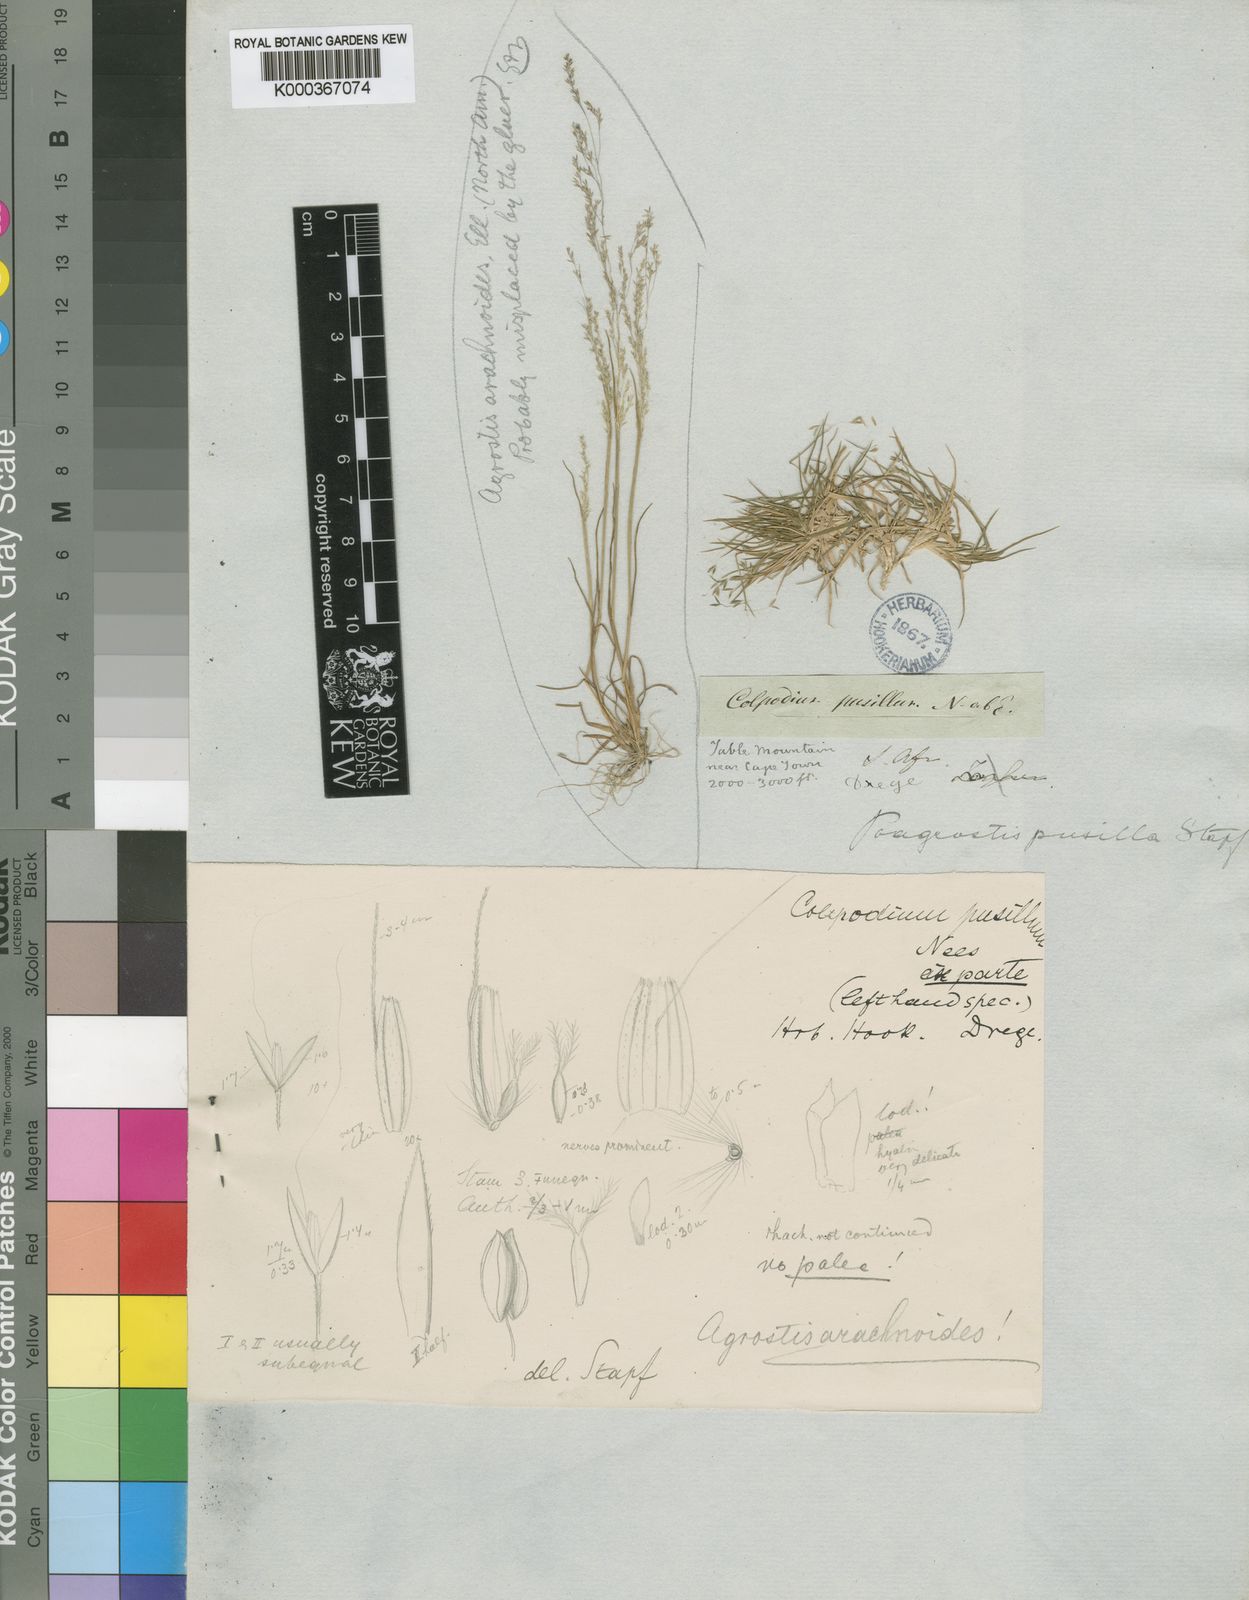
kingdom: Plantae
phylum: Tracheophyta
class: Liliopsida
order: Poales
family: Poaceae
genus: Pentameris
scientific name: Pentameris pusilla
